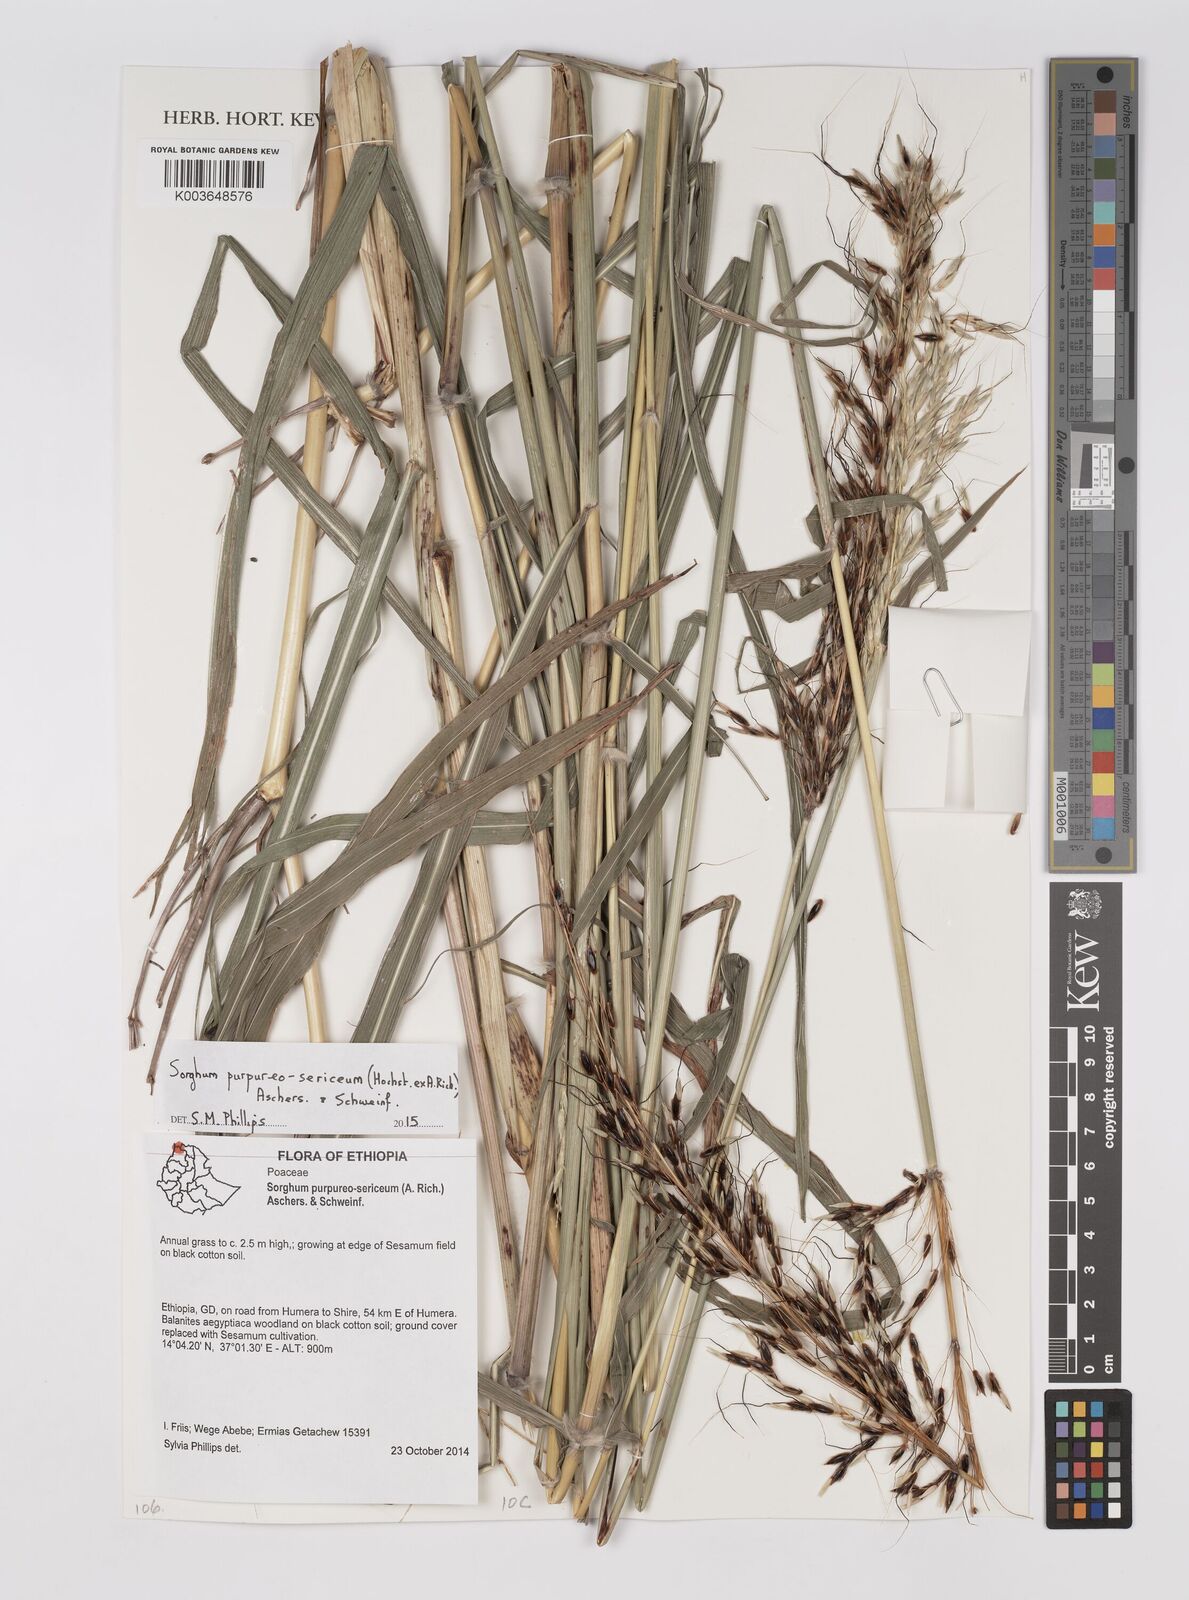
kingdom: Plantae
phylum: Tracheophyta
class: Liliopsida
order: Poales
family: Poaceae
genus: Sarga
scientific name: Sarga purpureosericea
